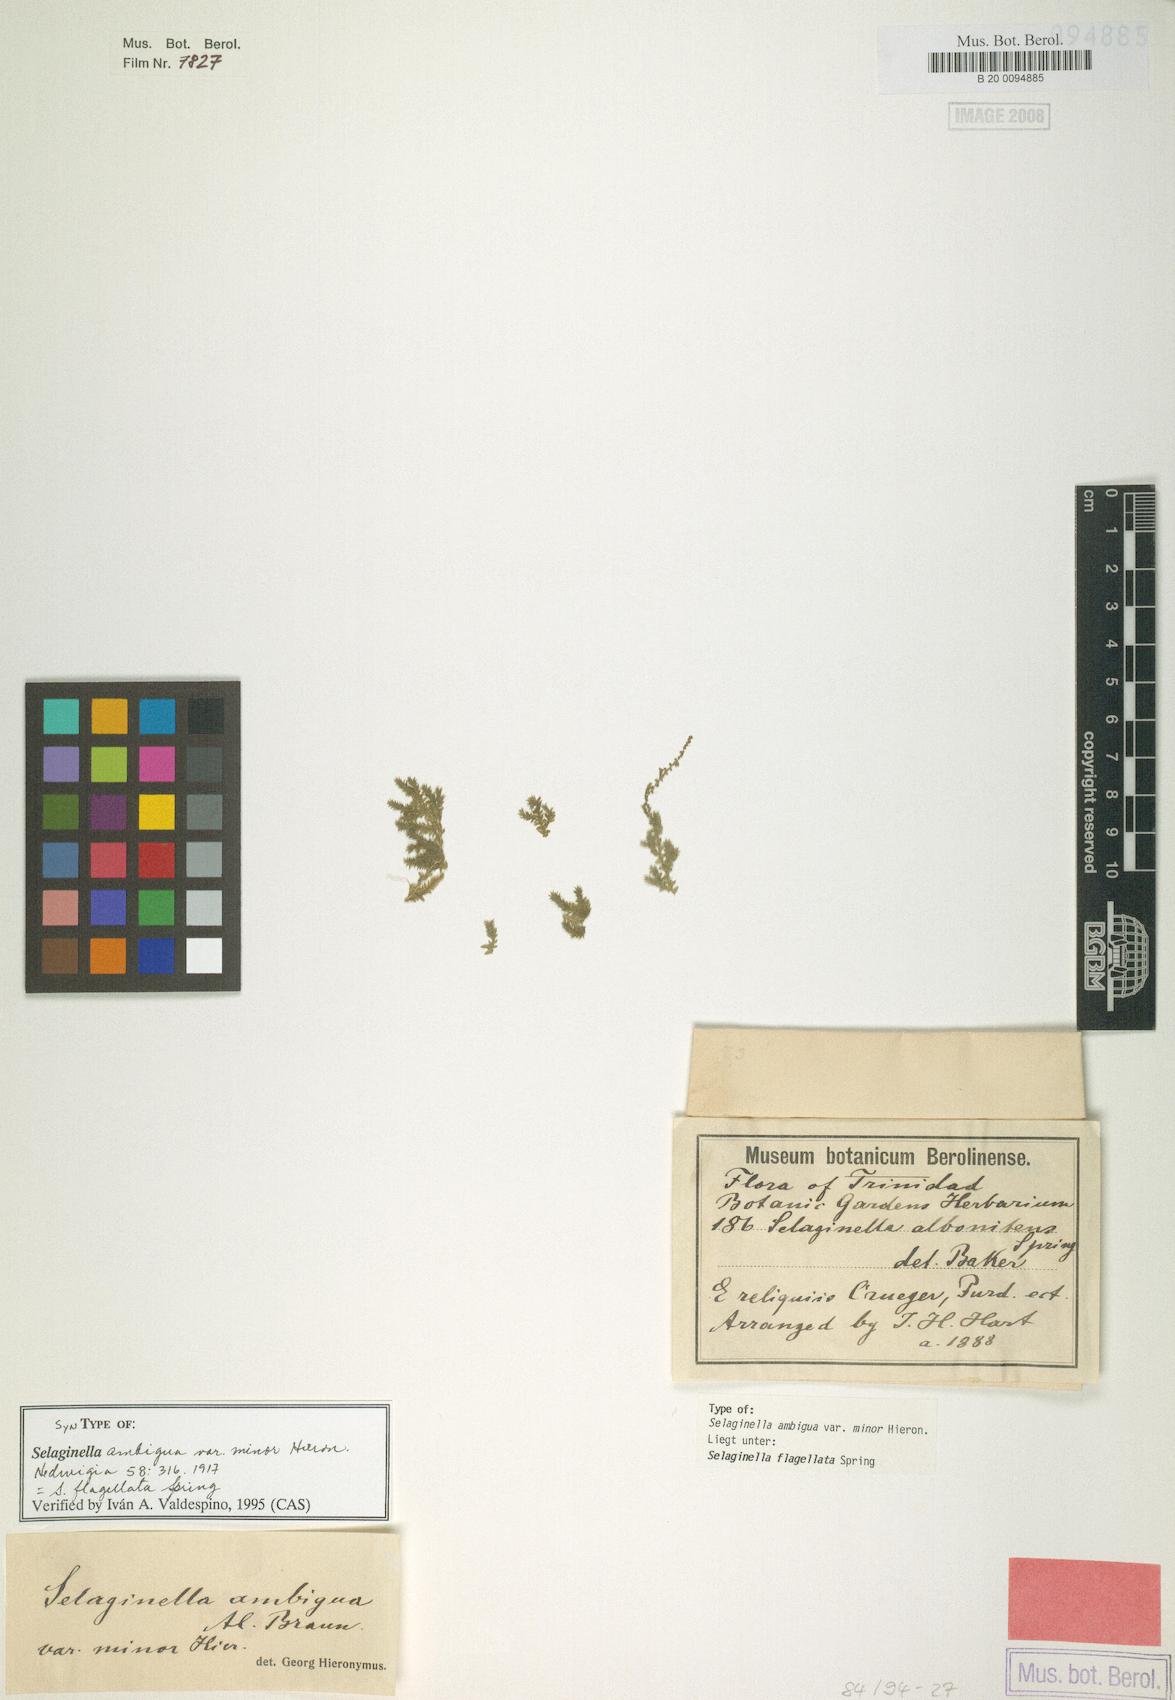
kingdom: Plantae
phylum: Tracheophyta
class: Lycopodiopsida
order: Selaginellales
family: Selaginellaceae
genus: Selaginella
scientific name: Selaginella flagellata
